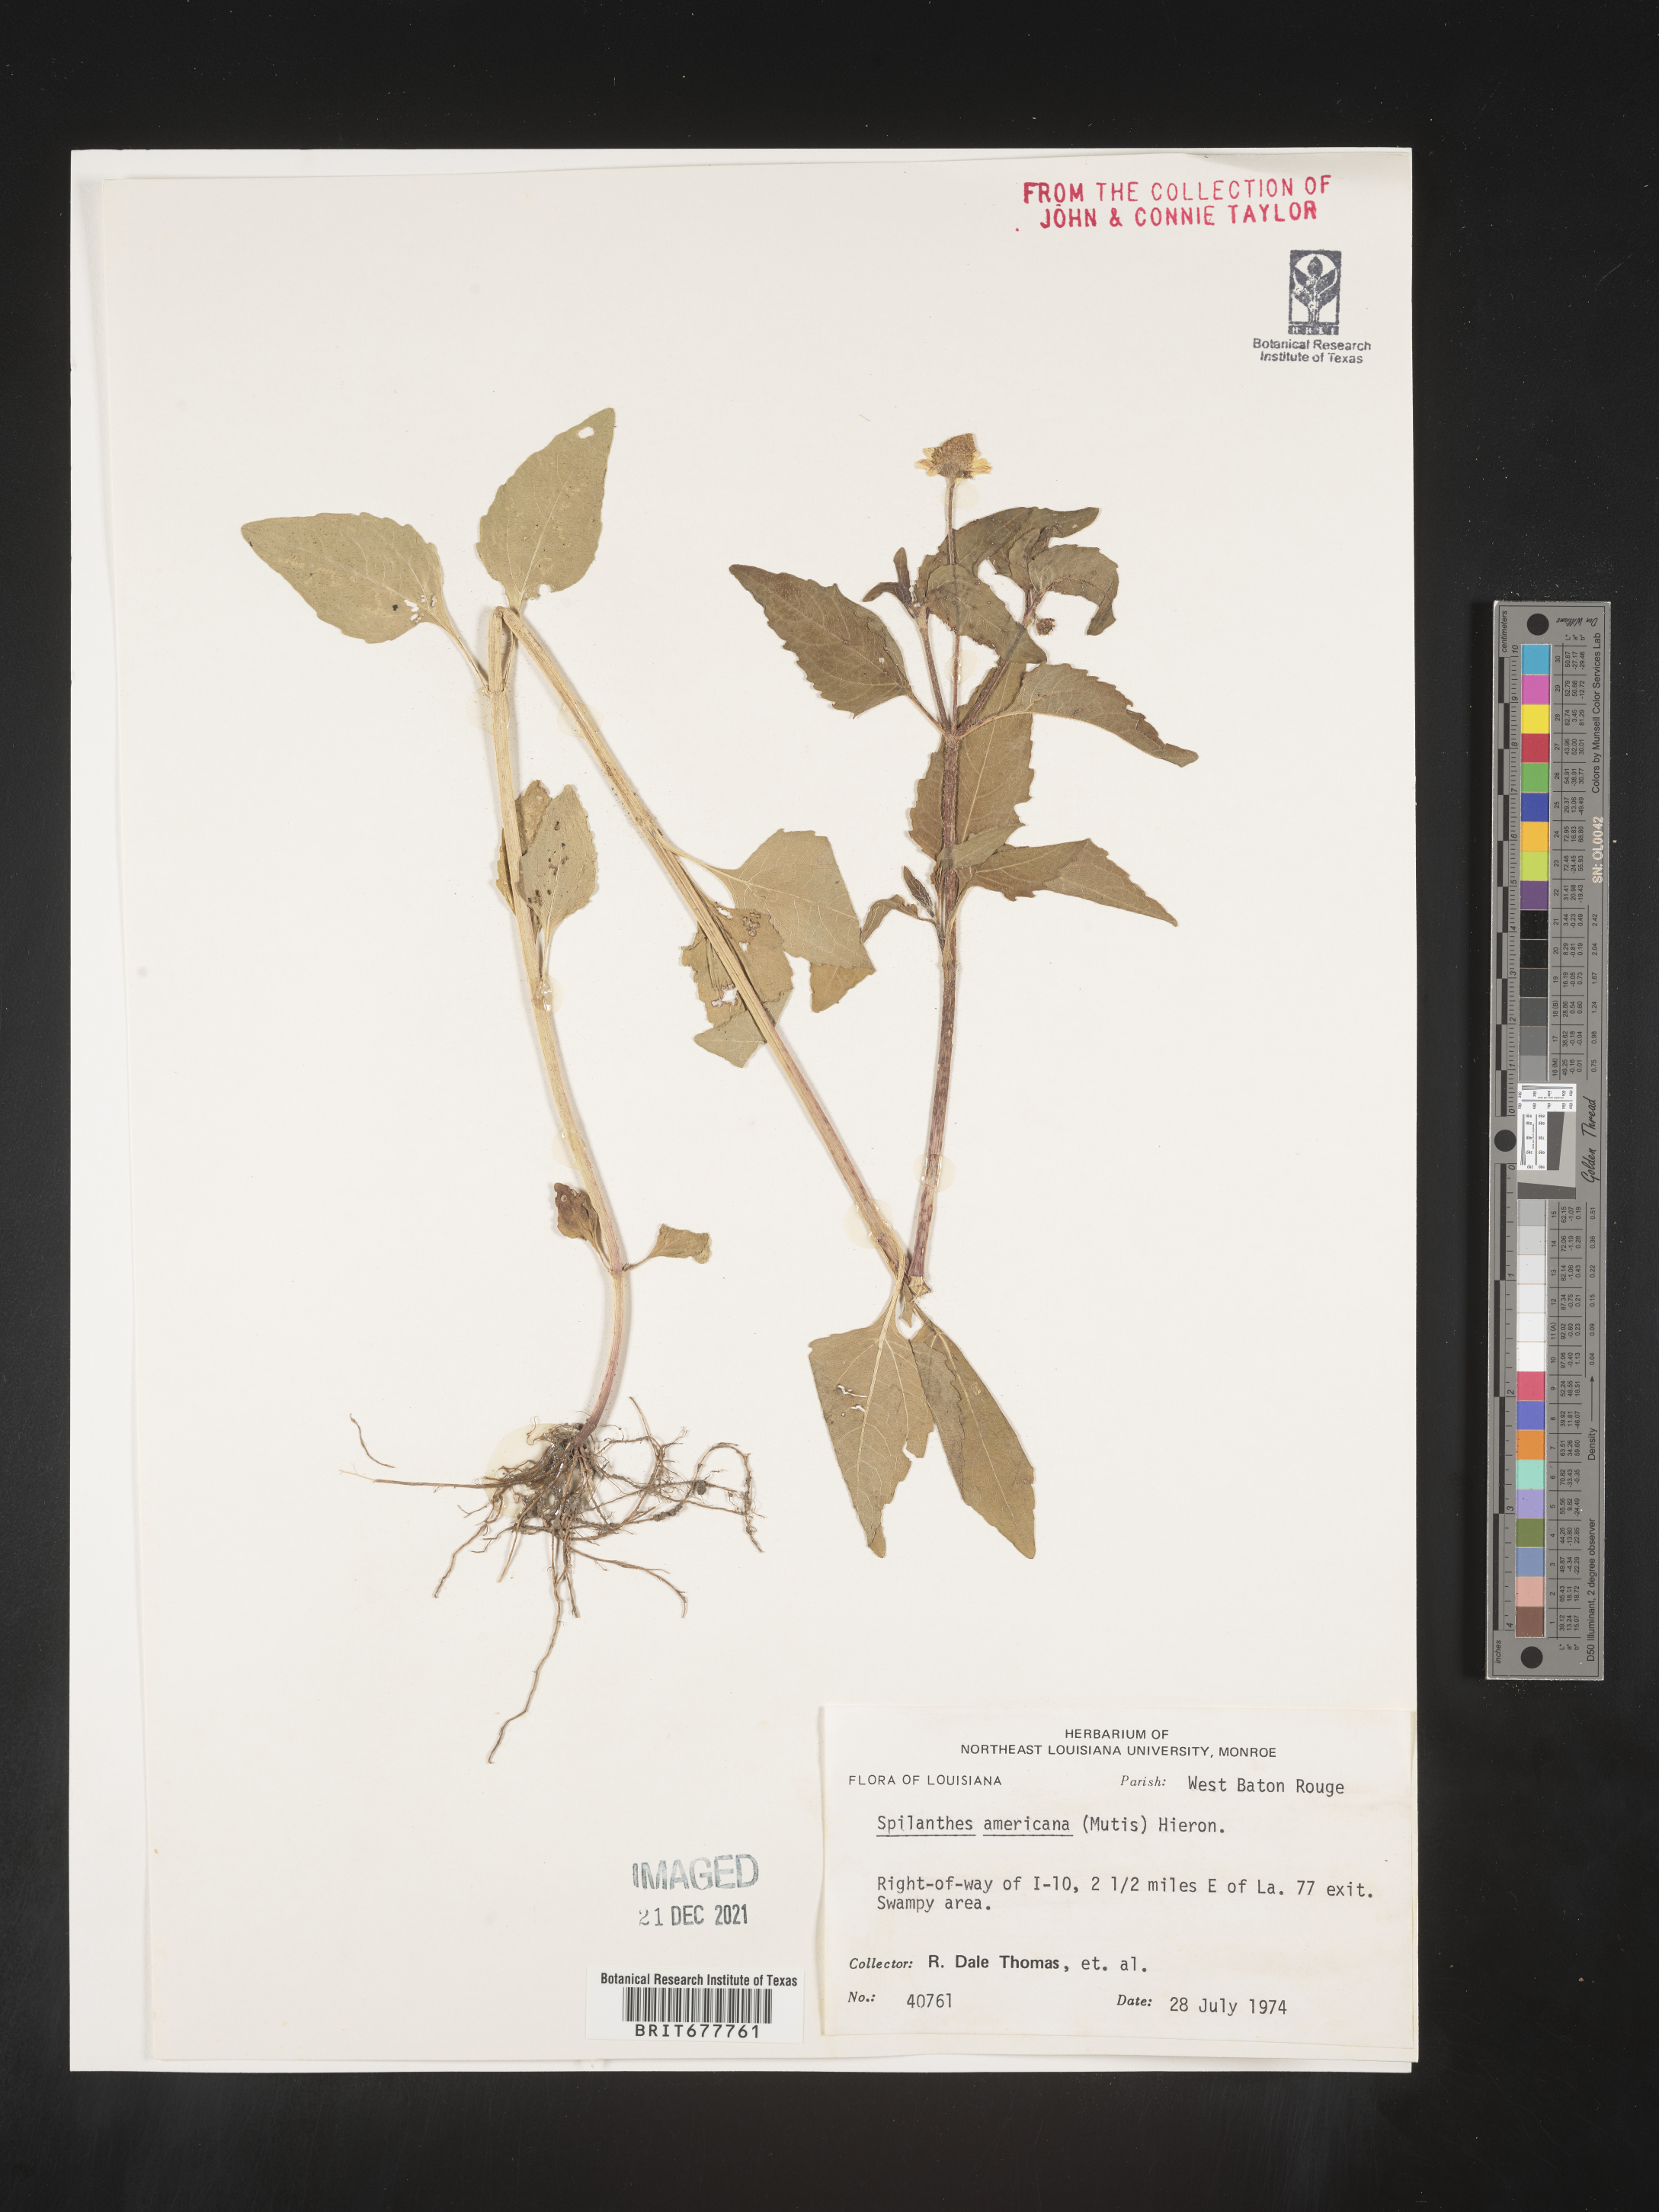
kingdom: Plantae
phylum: Tracheophyta
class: Magnoliopsida
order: Asterales
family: Asteraceae
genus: Spilanthes
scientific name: Spilanthes
